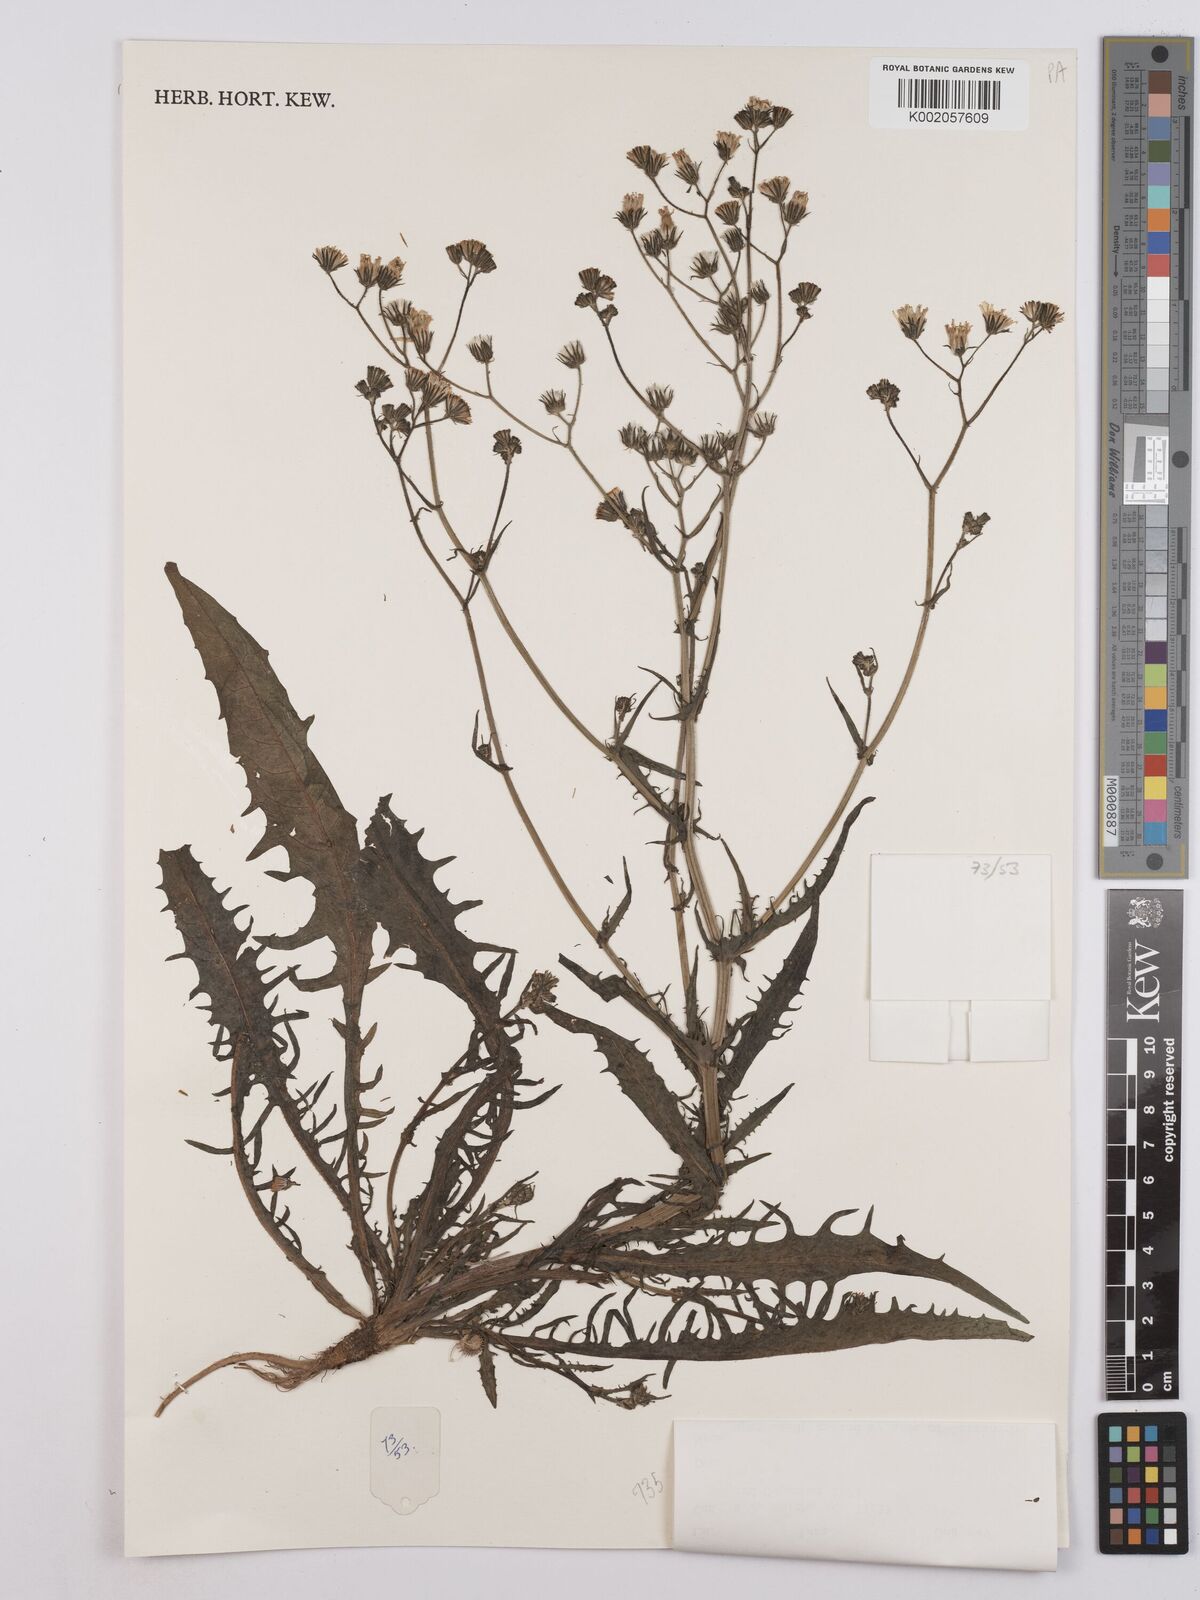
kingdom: Plantae
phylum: Tracheophyta
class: Magnoliopsida
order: Asterales
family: Asteraceae
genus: Crepis
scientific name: Crepis
